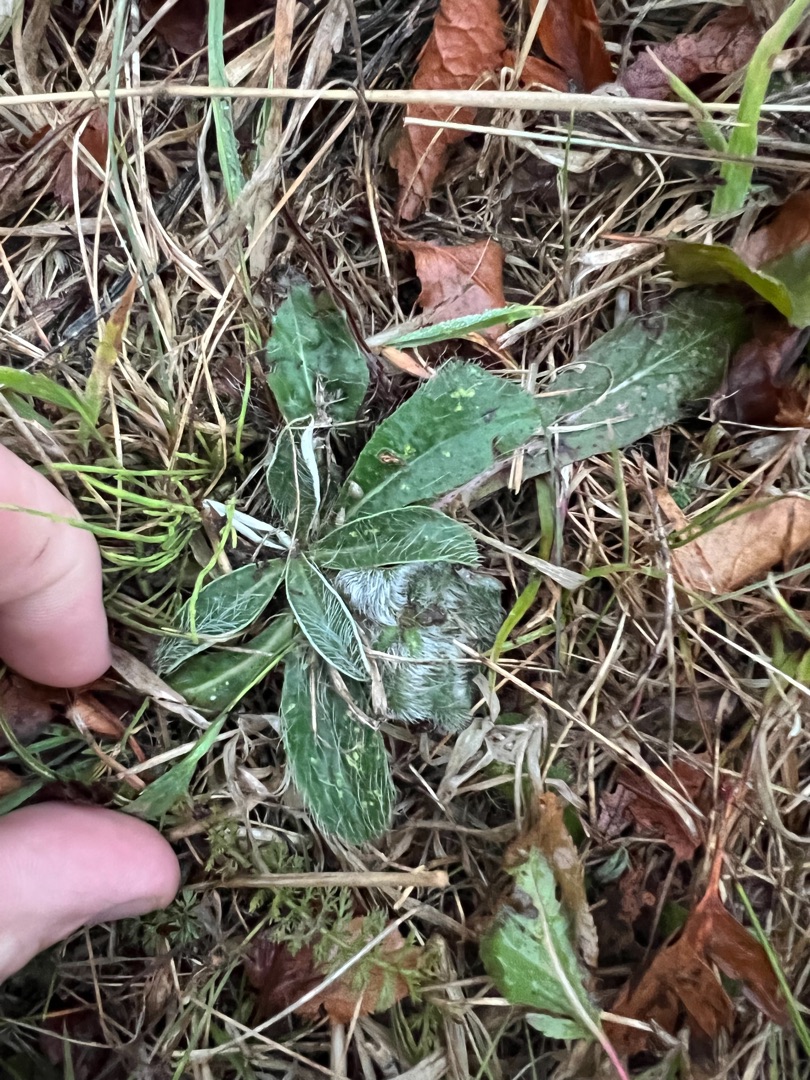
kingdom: Plantae
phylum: Tracheophyta
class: Magnoliopsida
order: Asterales
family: Asteraceae
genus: Pilosella
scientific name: Pilosella officinarum
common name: Håret høgeurt
